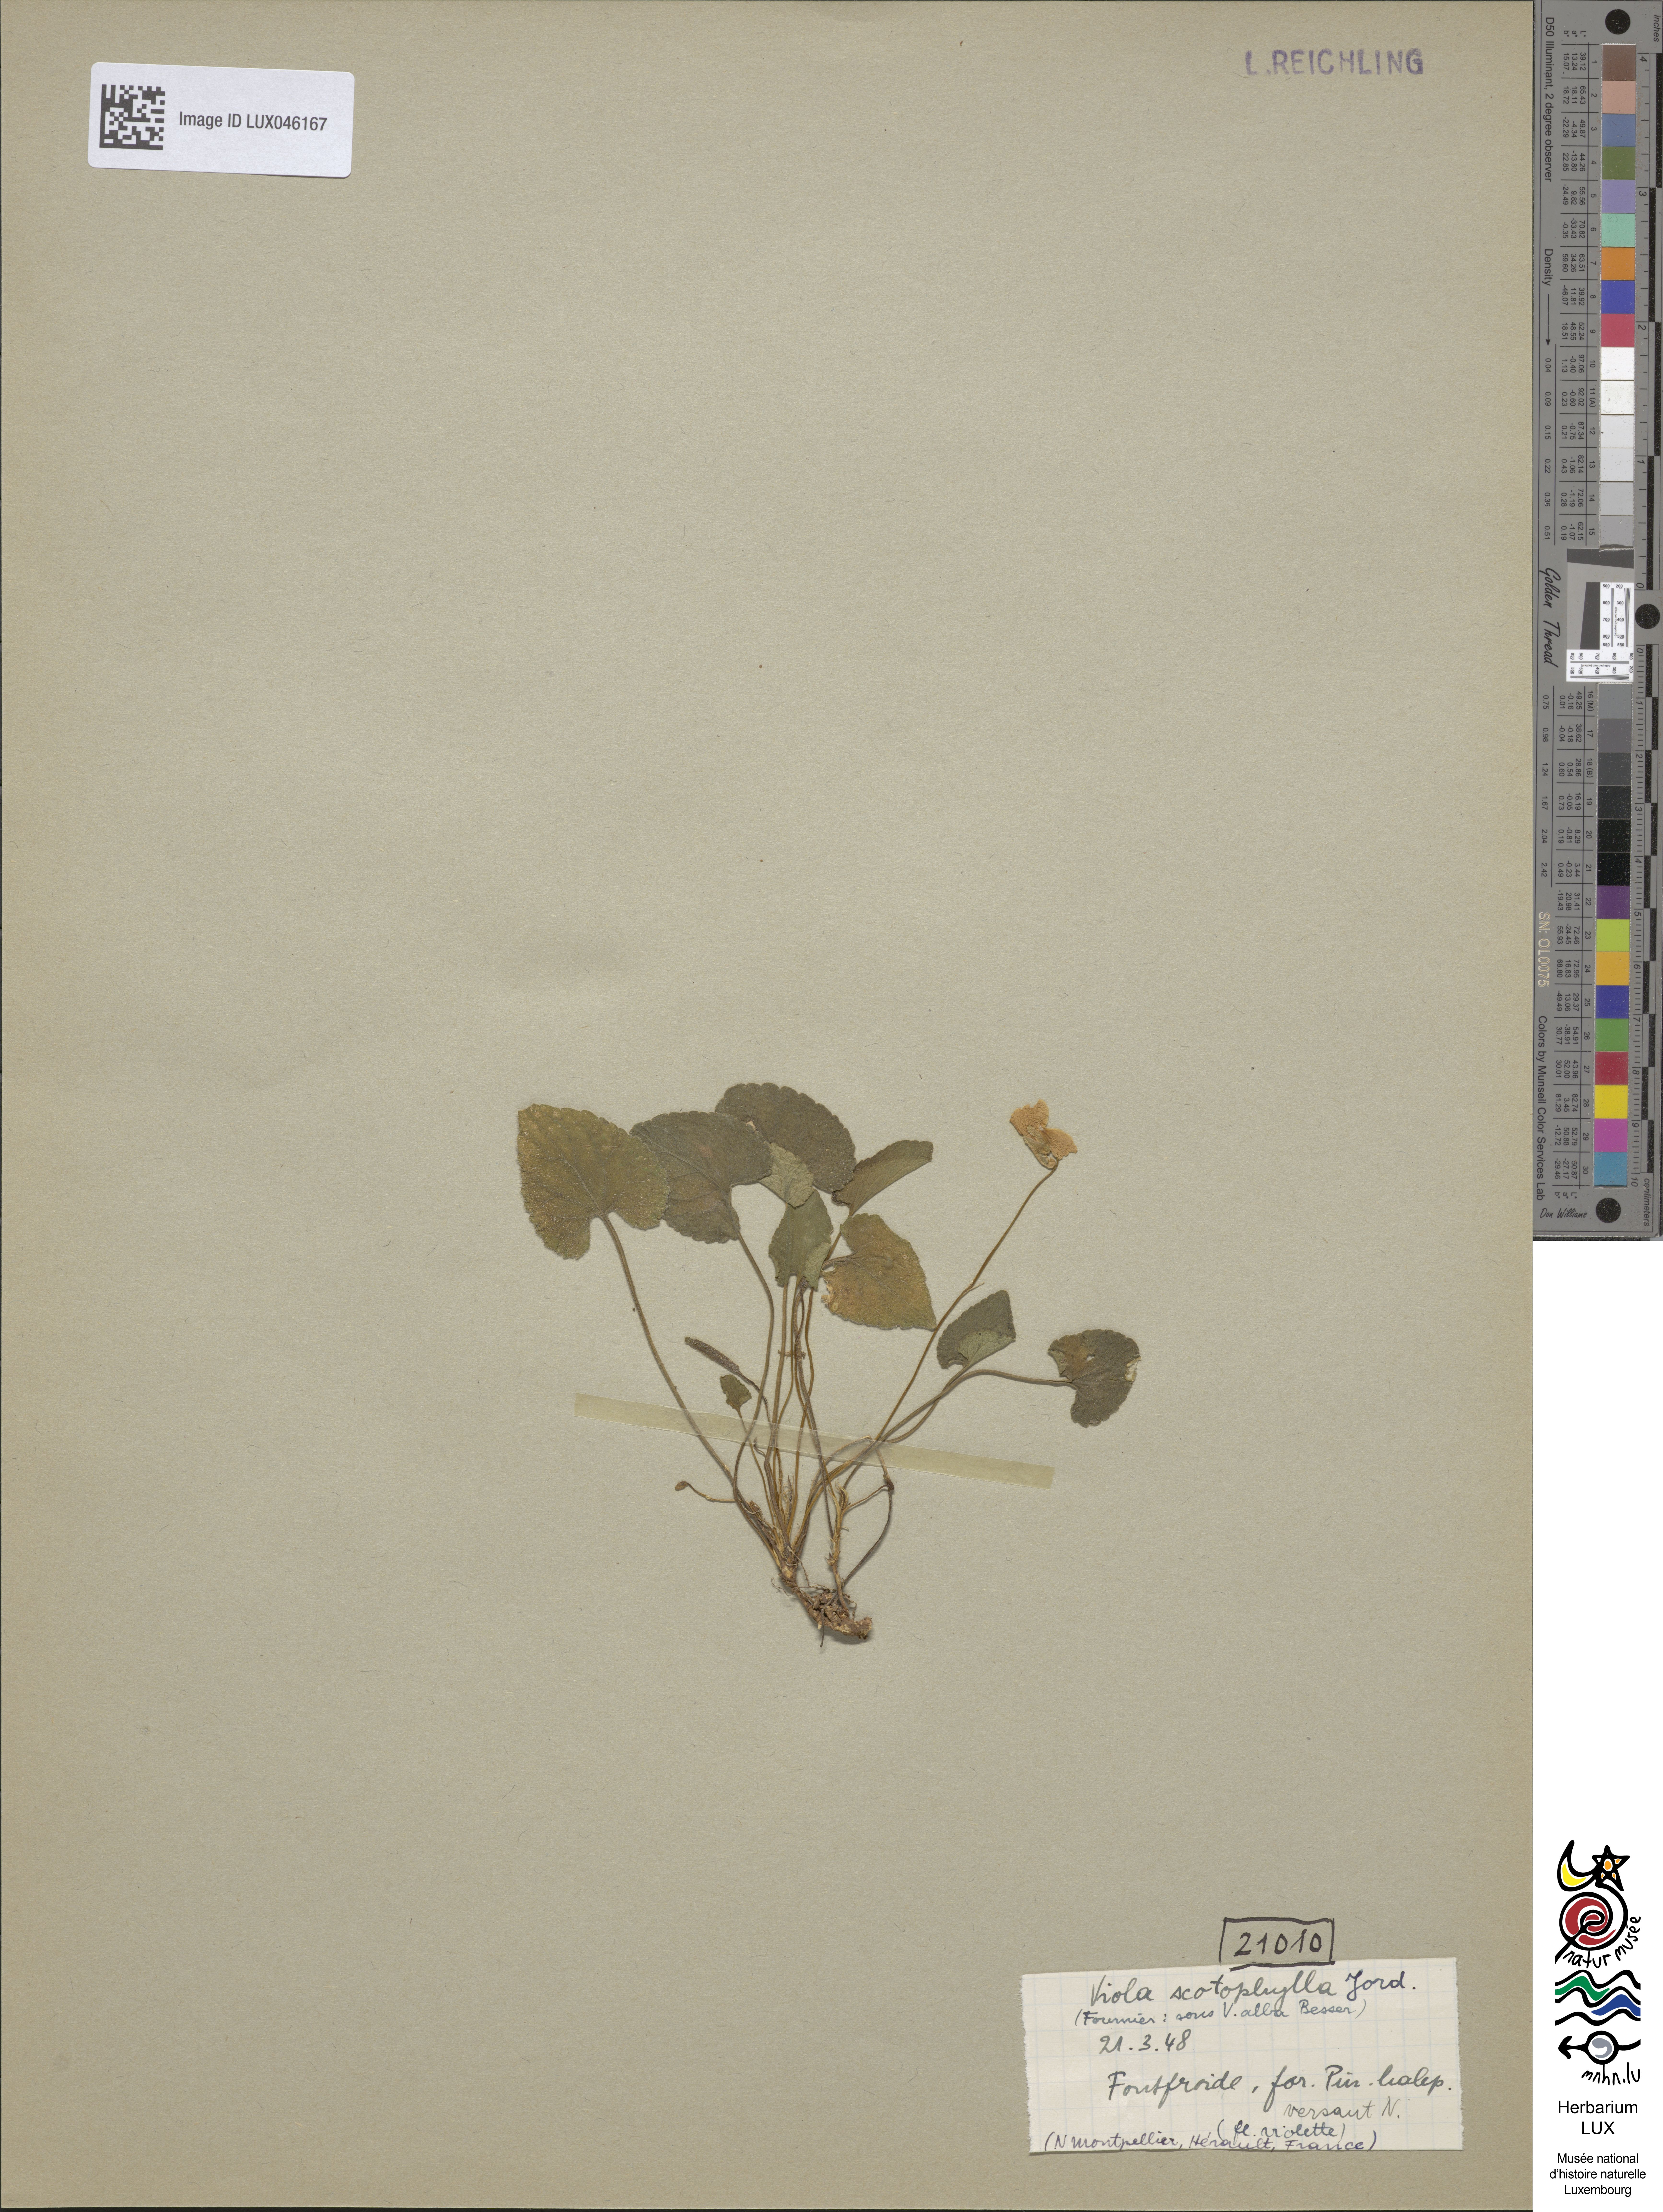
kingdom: Plantae
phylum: Tracheophyta
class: Magnoliopsida
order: Malpighiales
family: Violaceae
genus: Viola
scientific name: Viola alba
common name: White violet
